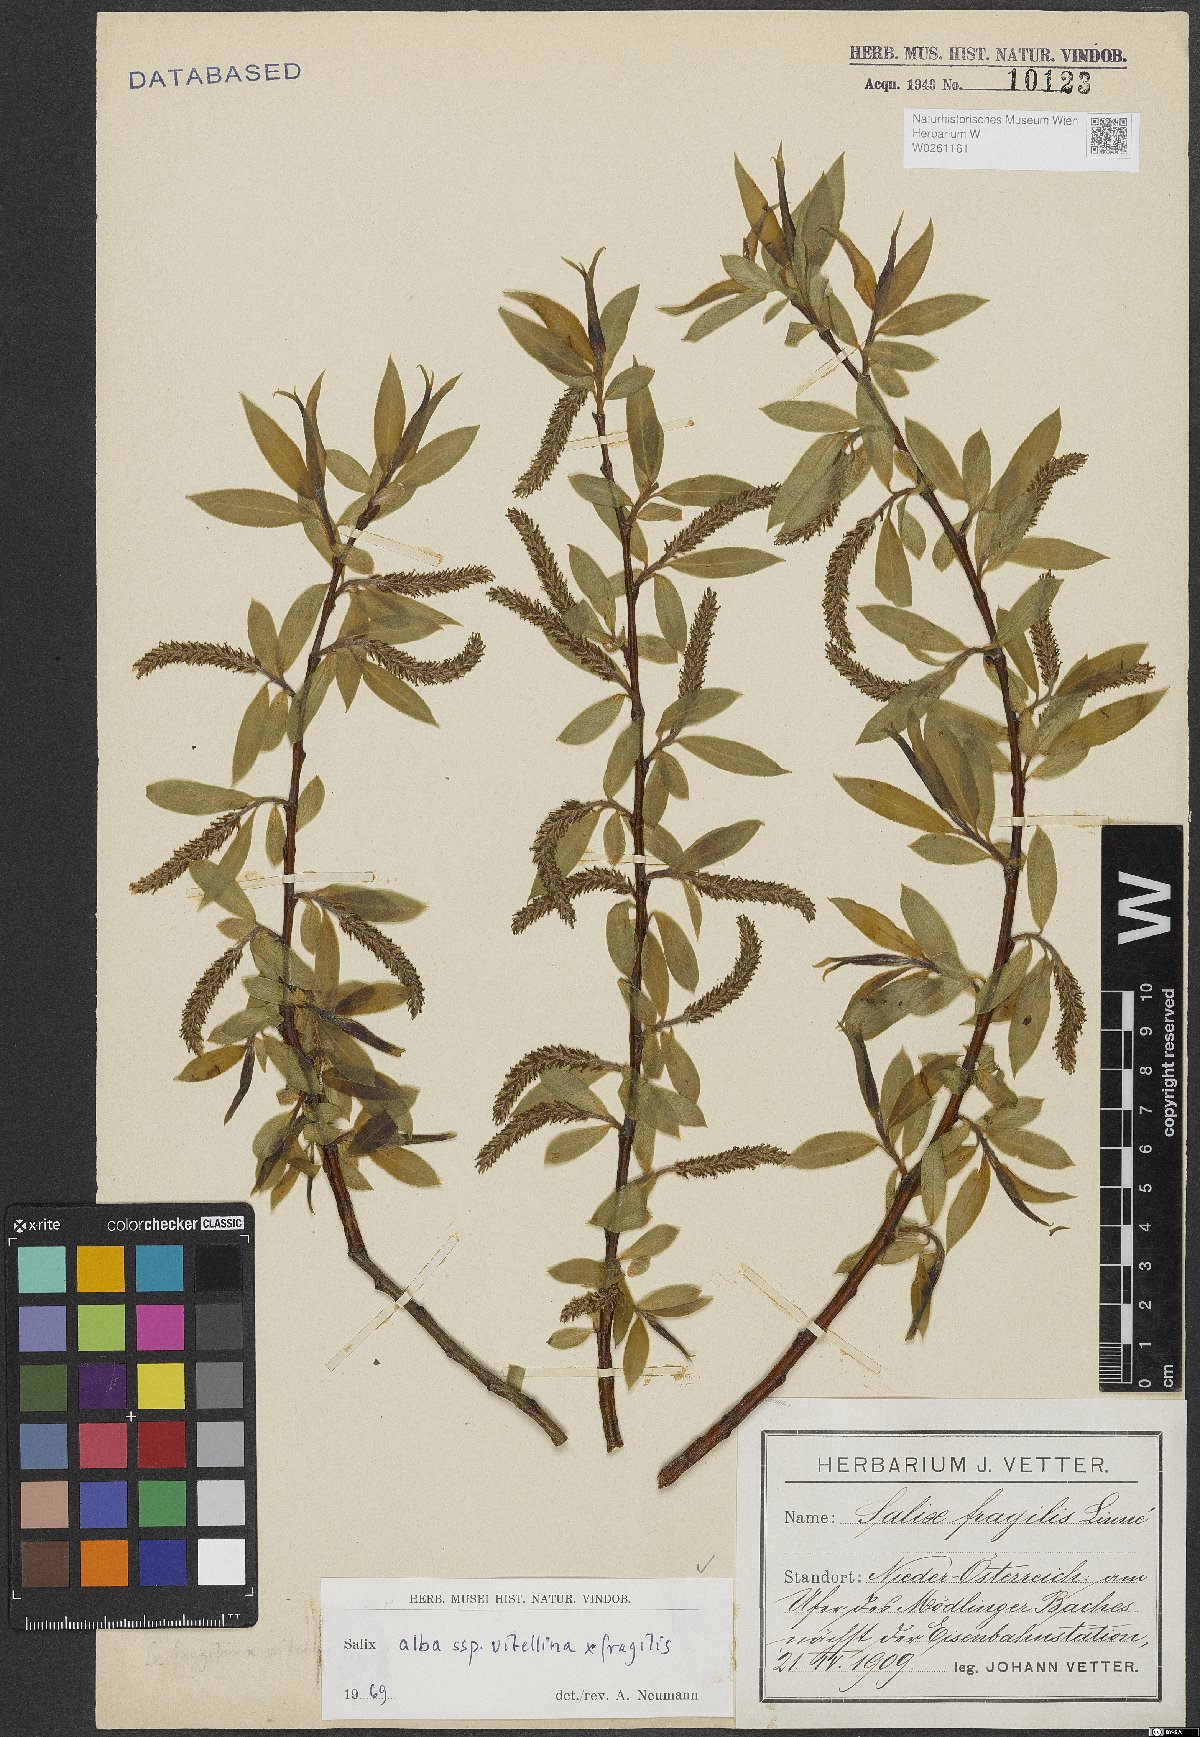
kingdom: Plantae
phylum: Tracheophyta
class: Magnoliopsida
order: Malpighiales
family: Salicaceae
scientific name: Salicaceae
